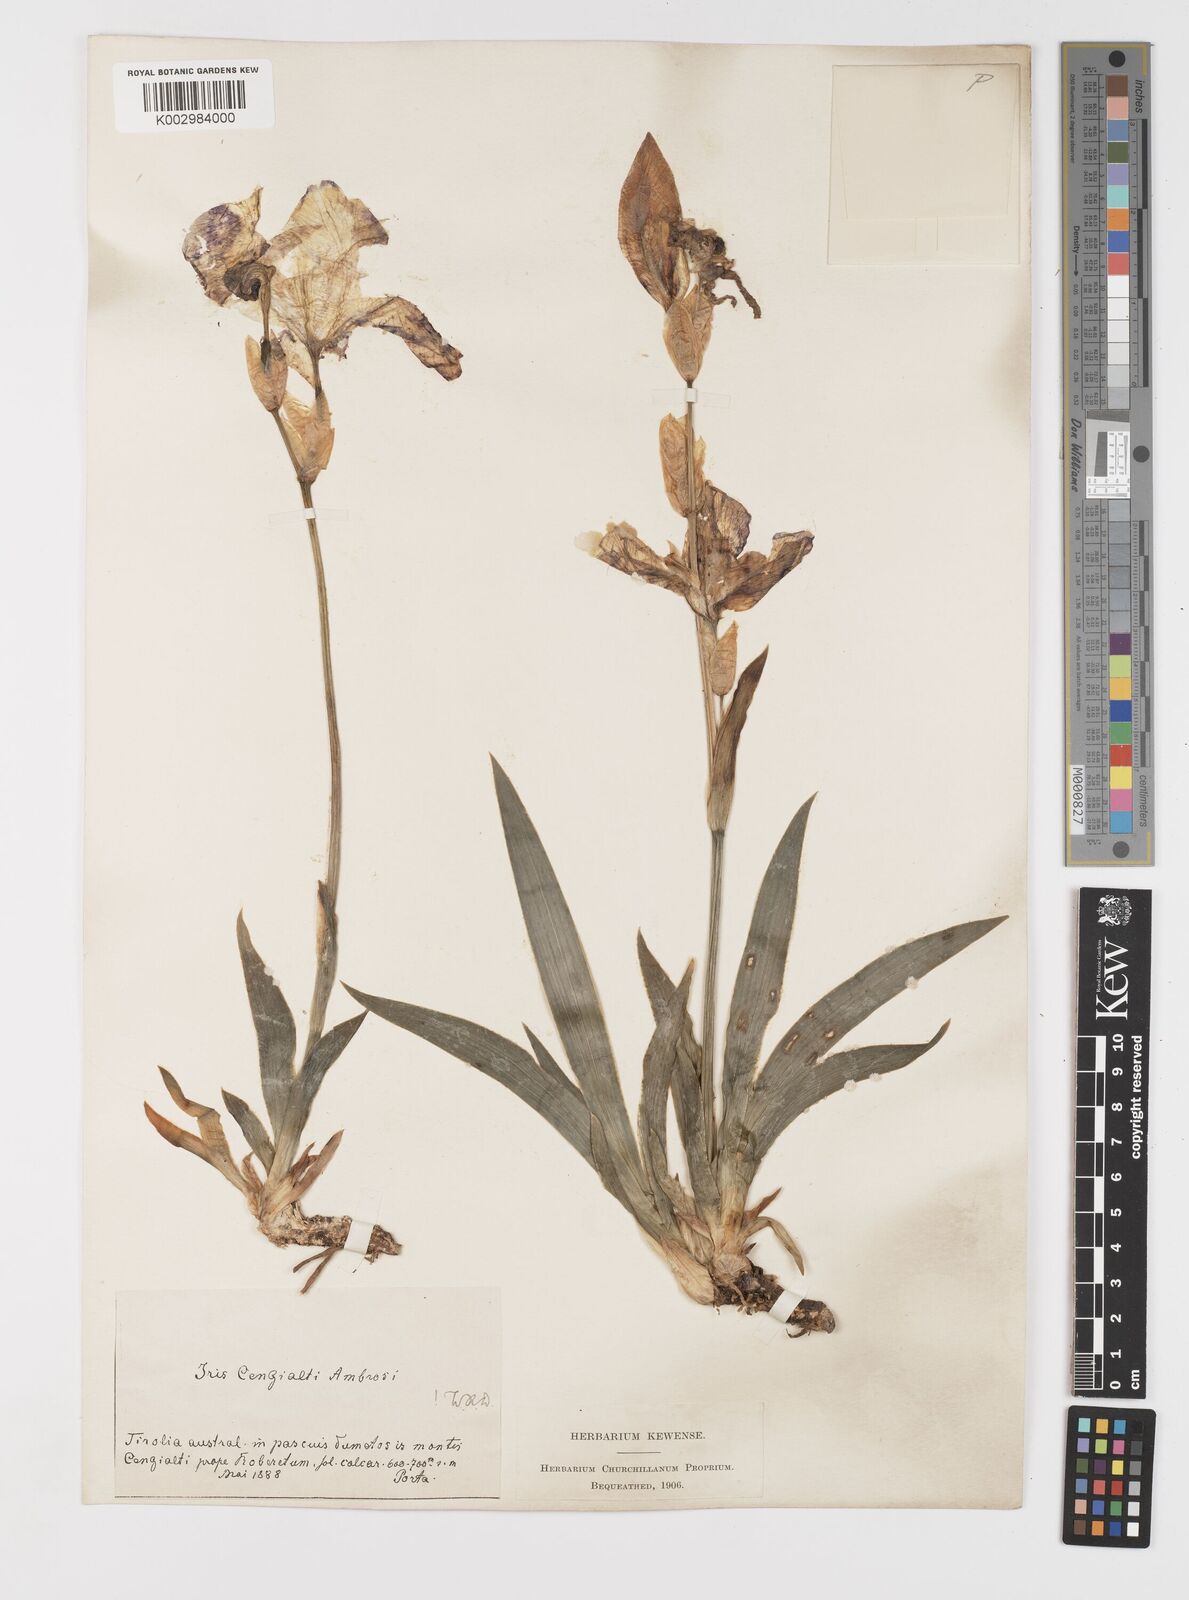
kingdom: Plantae
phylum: Tracheophyta
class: Liliopsida
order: Asparagales
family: Iridaceae
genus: Iris
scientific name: Iris pallida
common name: Sweet iris
